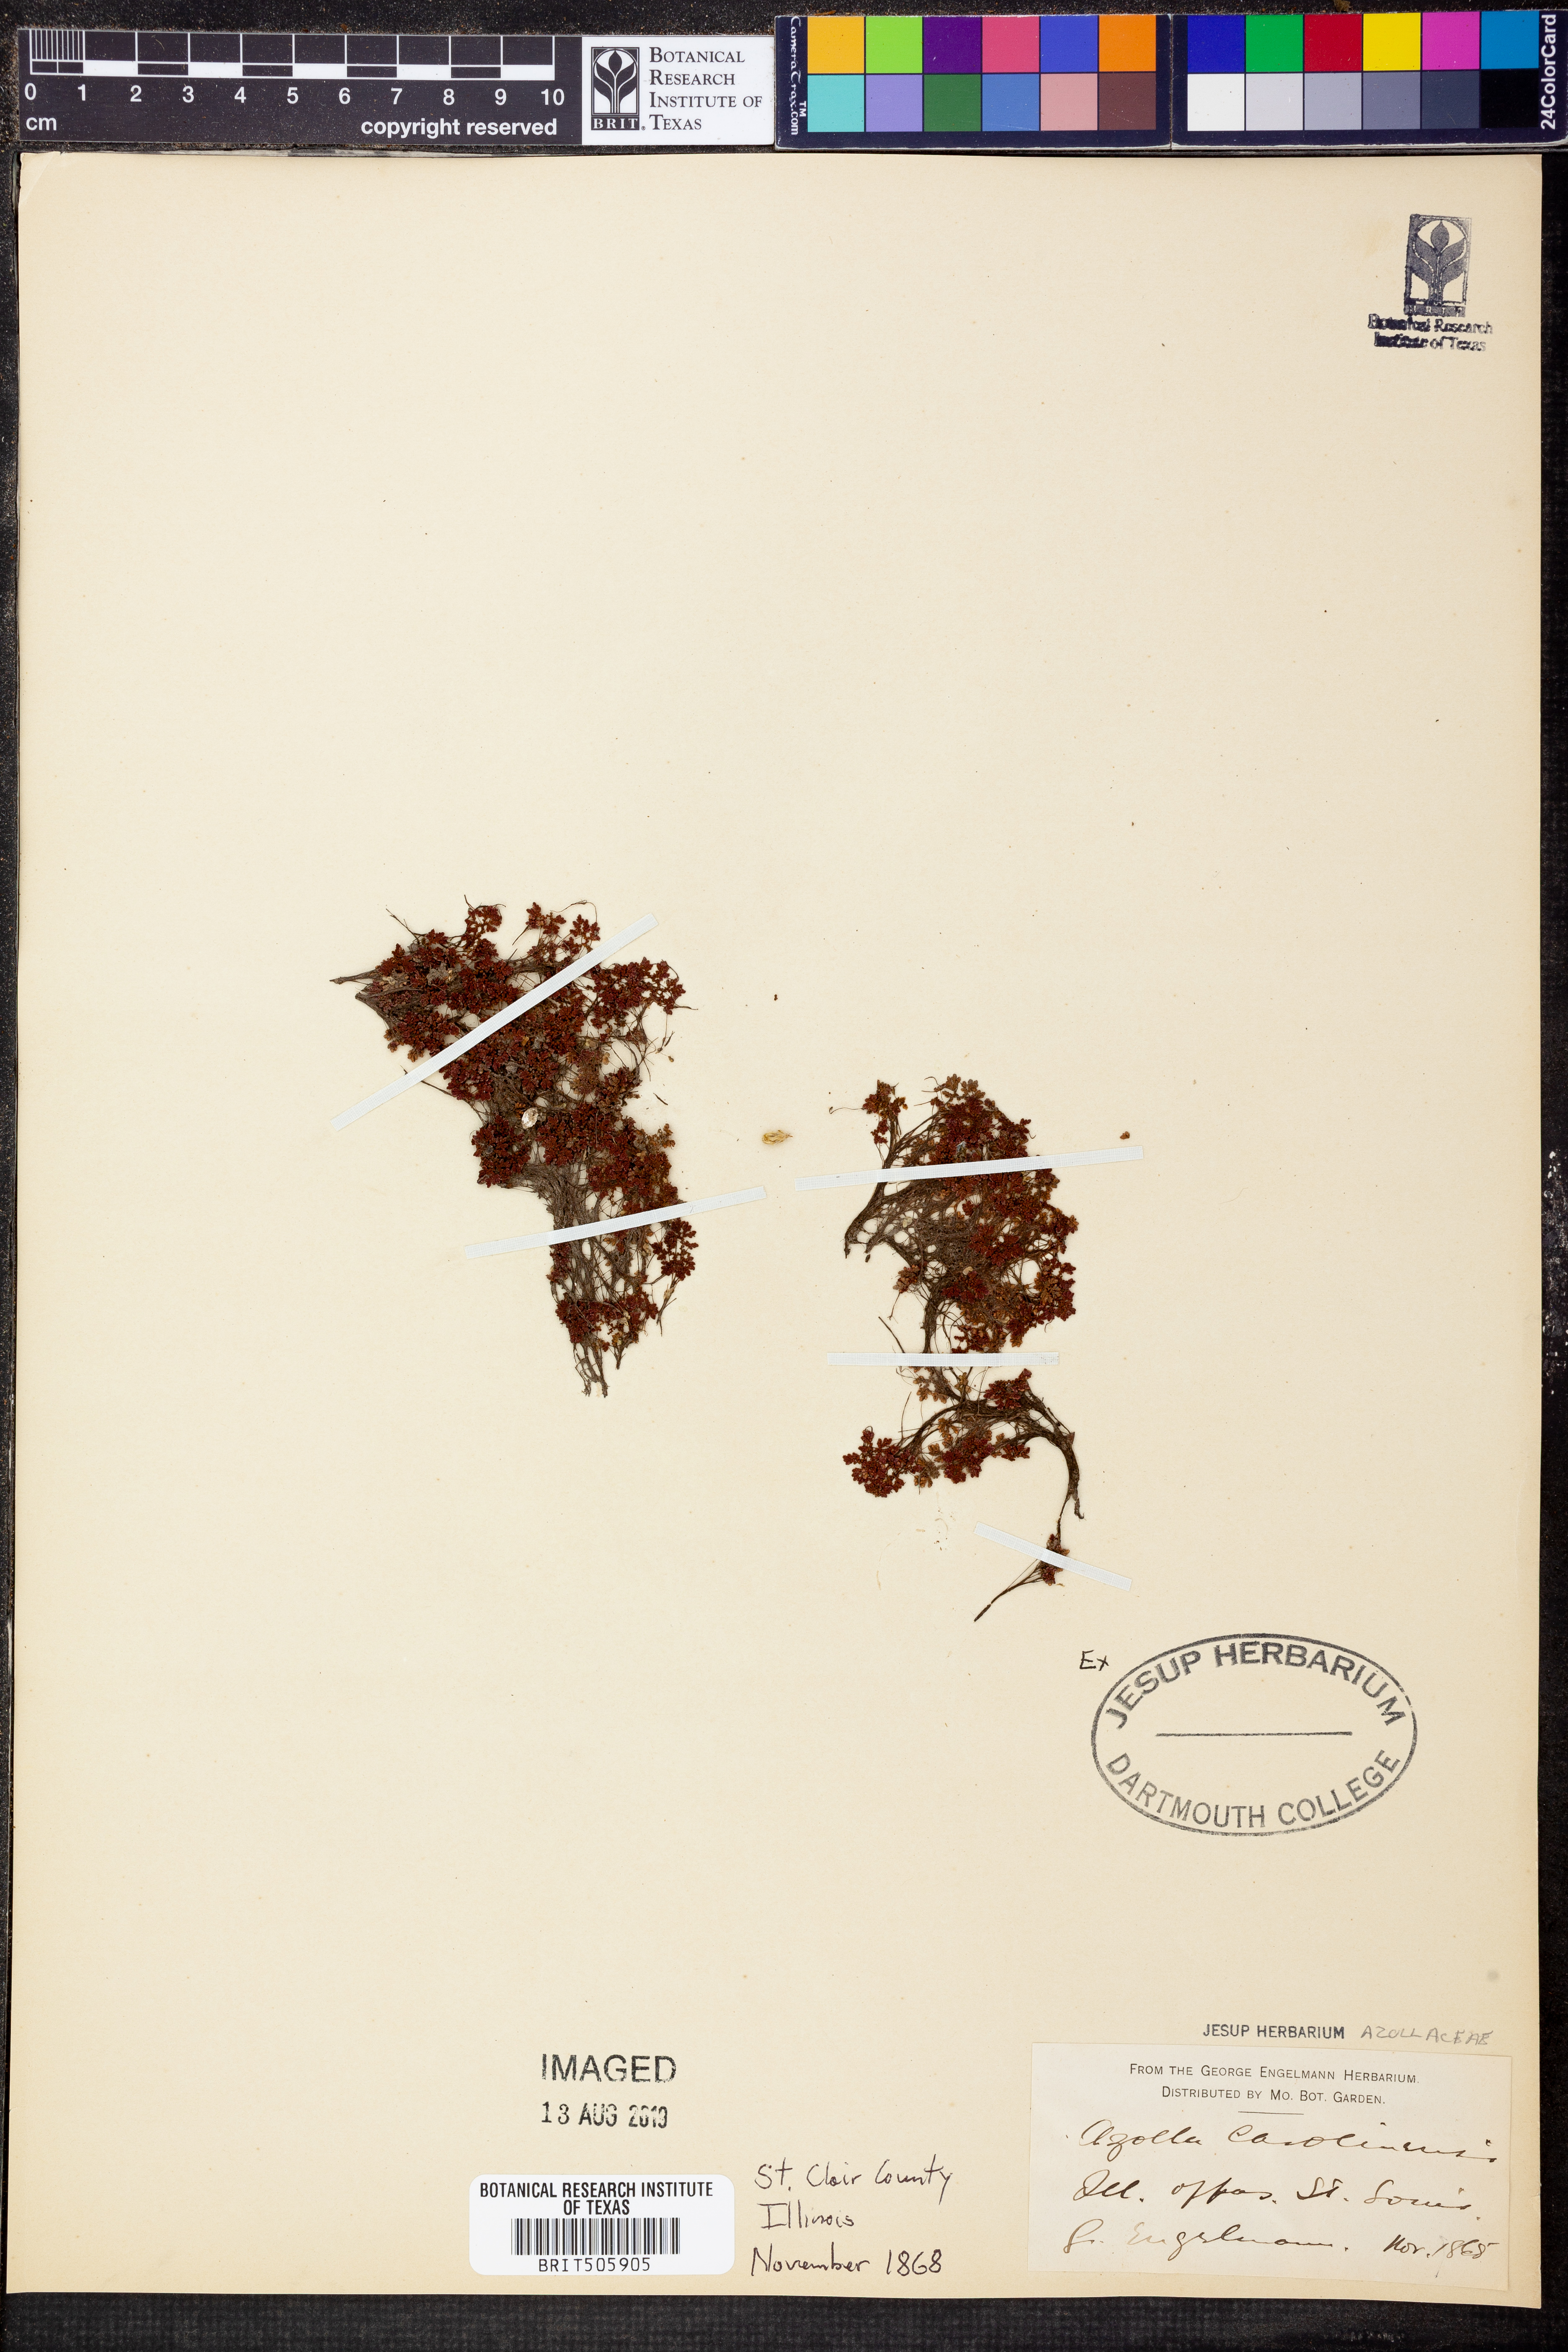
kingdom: Plantae
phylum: Tracheophyta
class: Polypodiopsida
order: Salviniales
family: Salviniaceae
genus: Azolla
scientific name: Azolla caroliniana
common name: Carolina mosquitofern
